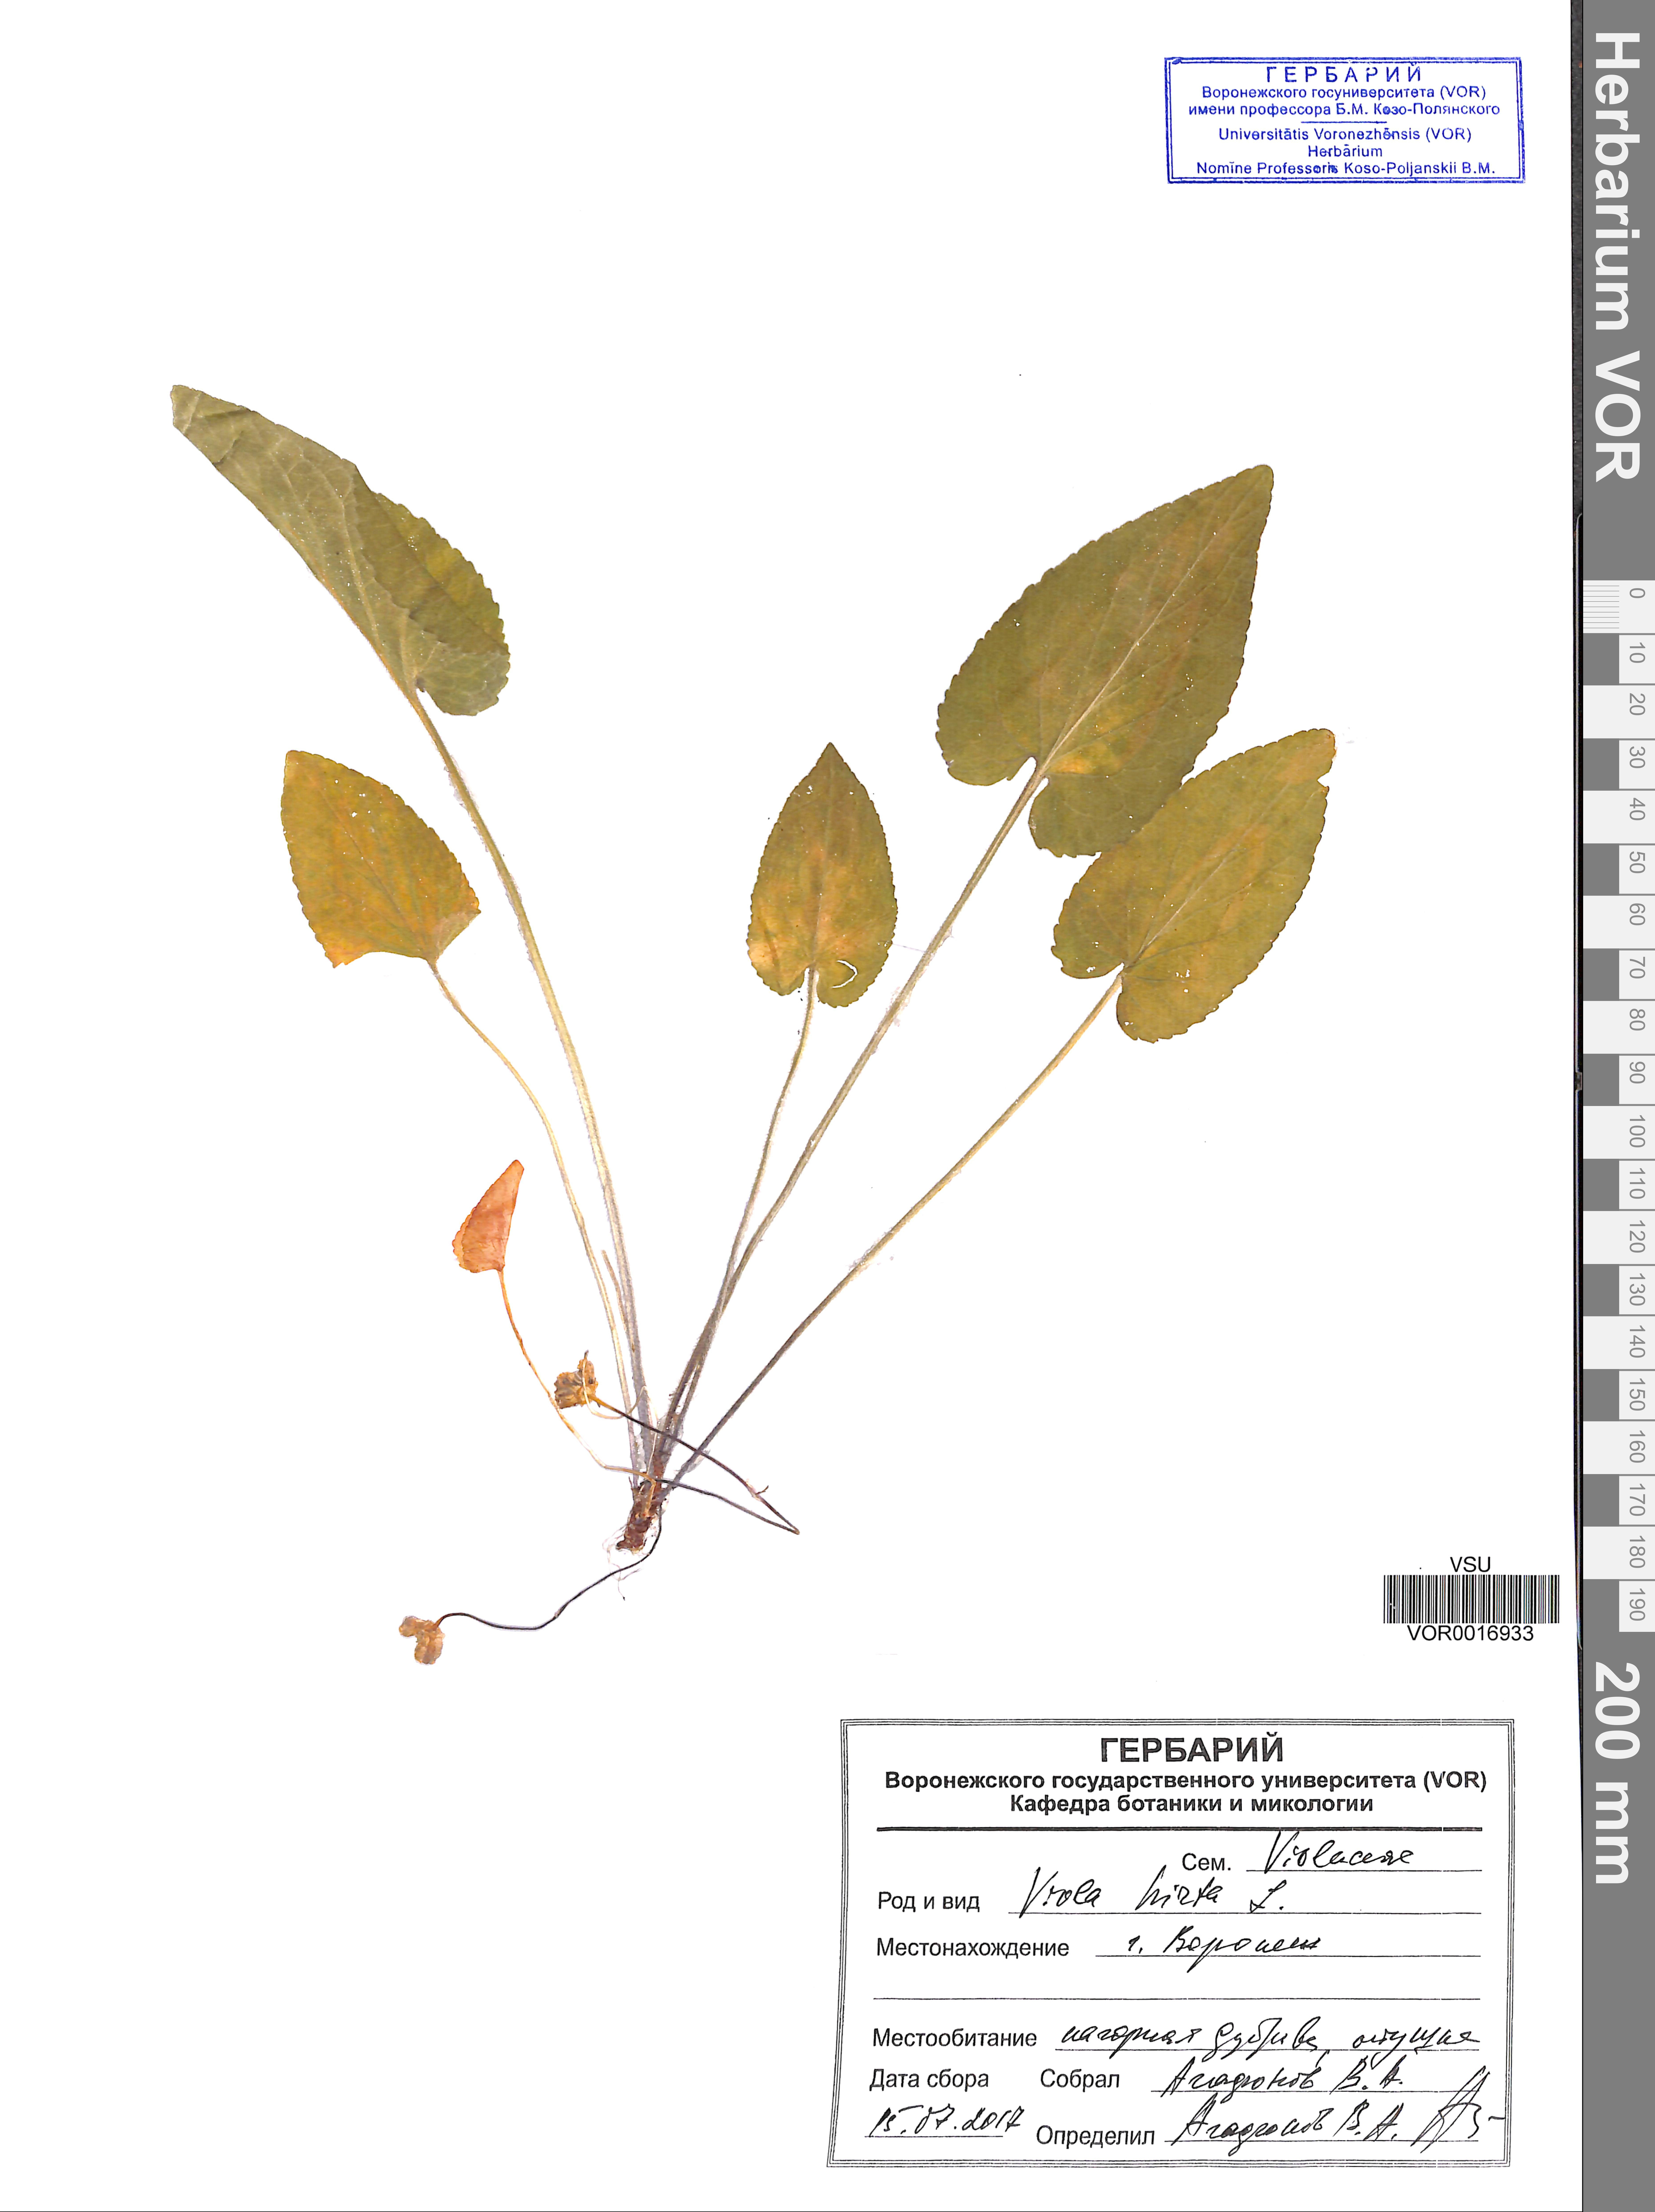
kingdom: Plantae
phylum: Tracheophyta
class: Magnoliopsida
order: Malpighiales
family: Violaceae
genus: Viola
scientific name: Viola hirta
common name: Hairy violet
